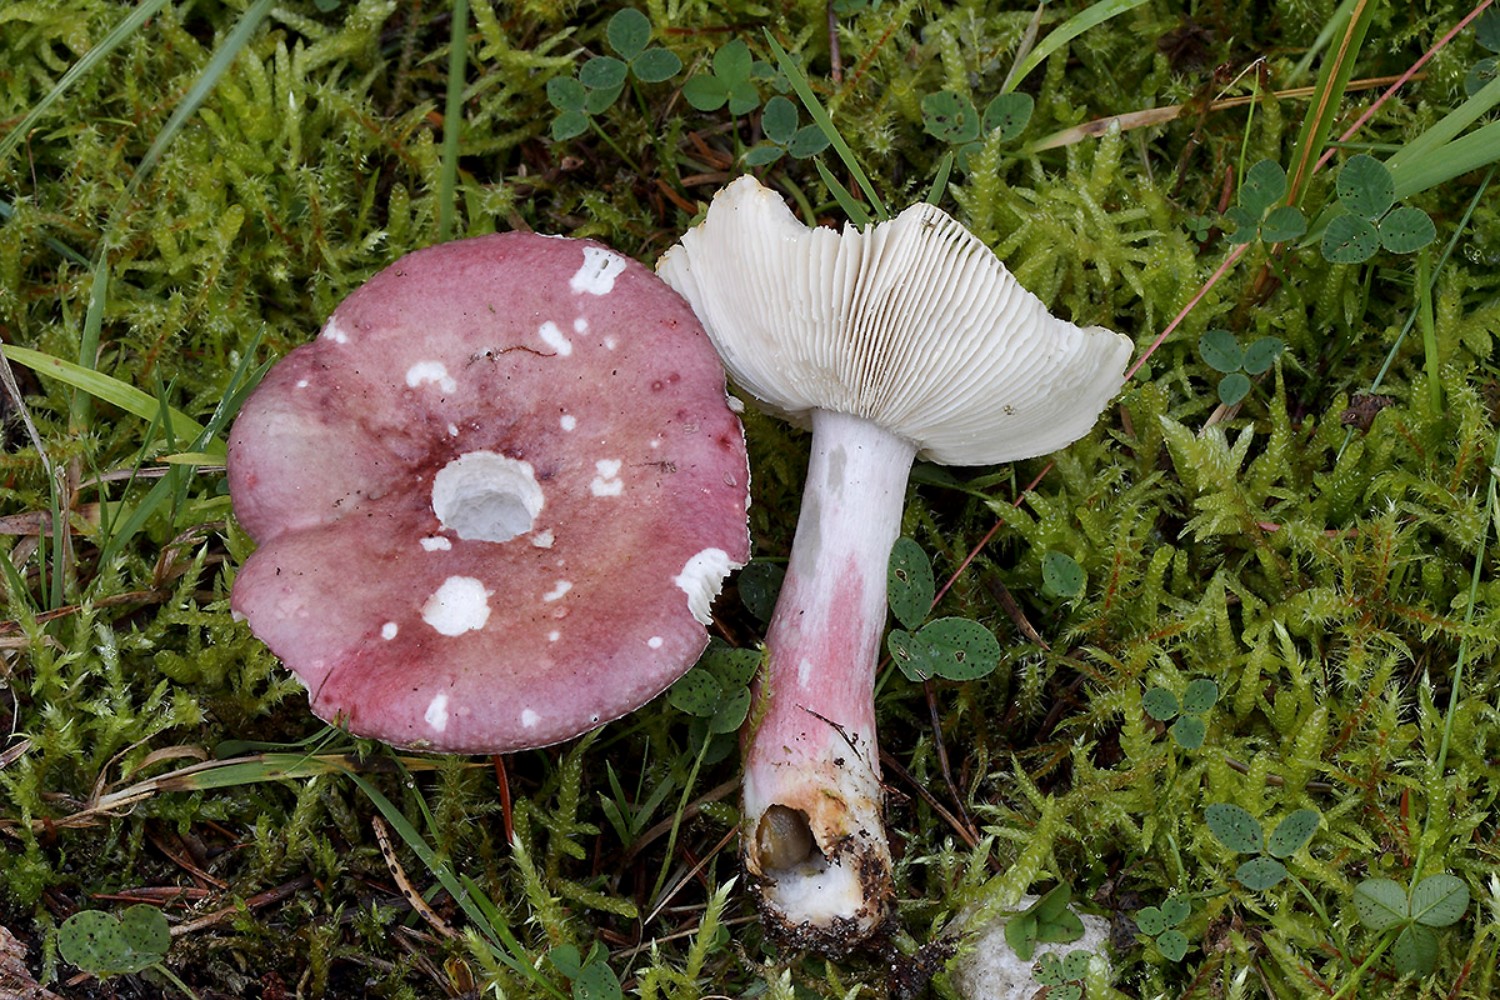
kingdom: Fungi
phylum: Basidiomycota
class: Agaricomycetes
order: Russulales
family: Russulaceae
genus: Russula
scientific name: Russula queletii
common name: Quélets skørhat
